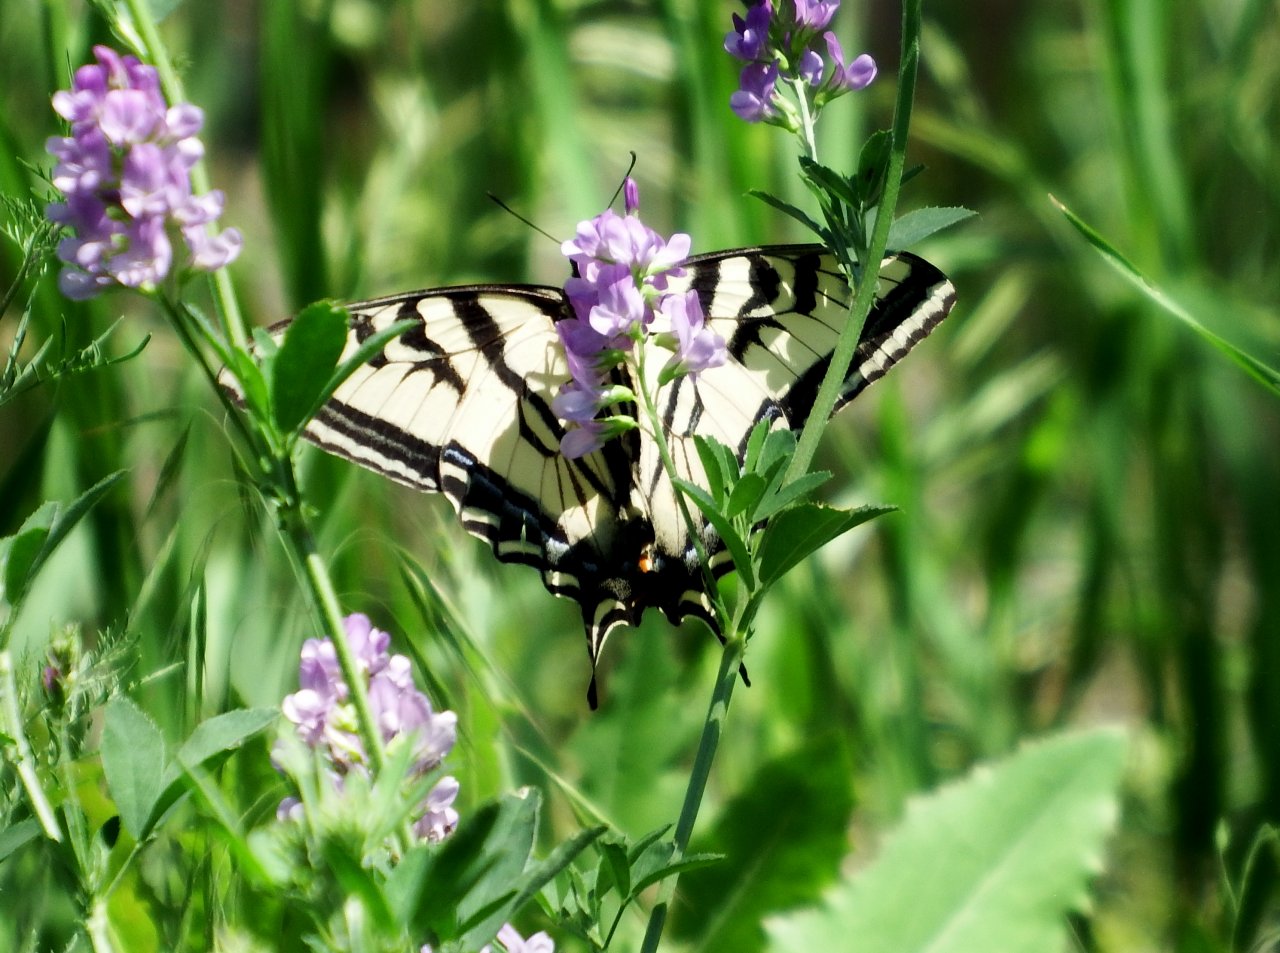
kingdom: Animalia
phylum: Arthropoda
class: Insecta
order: Lepidoptera
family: Papilionidae
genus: Pterourus
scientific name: Pterourus rutulus
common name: Western Tiger Swallowtail
